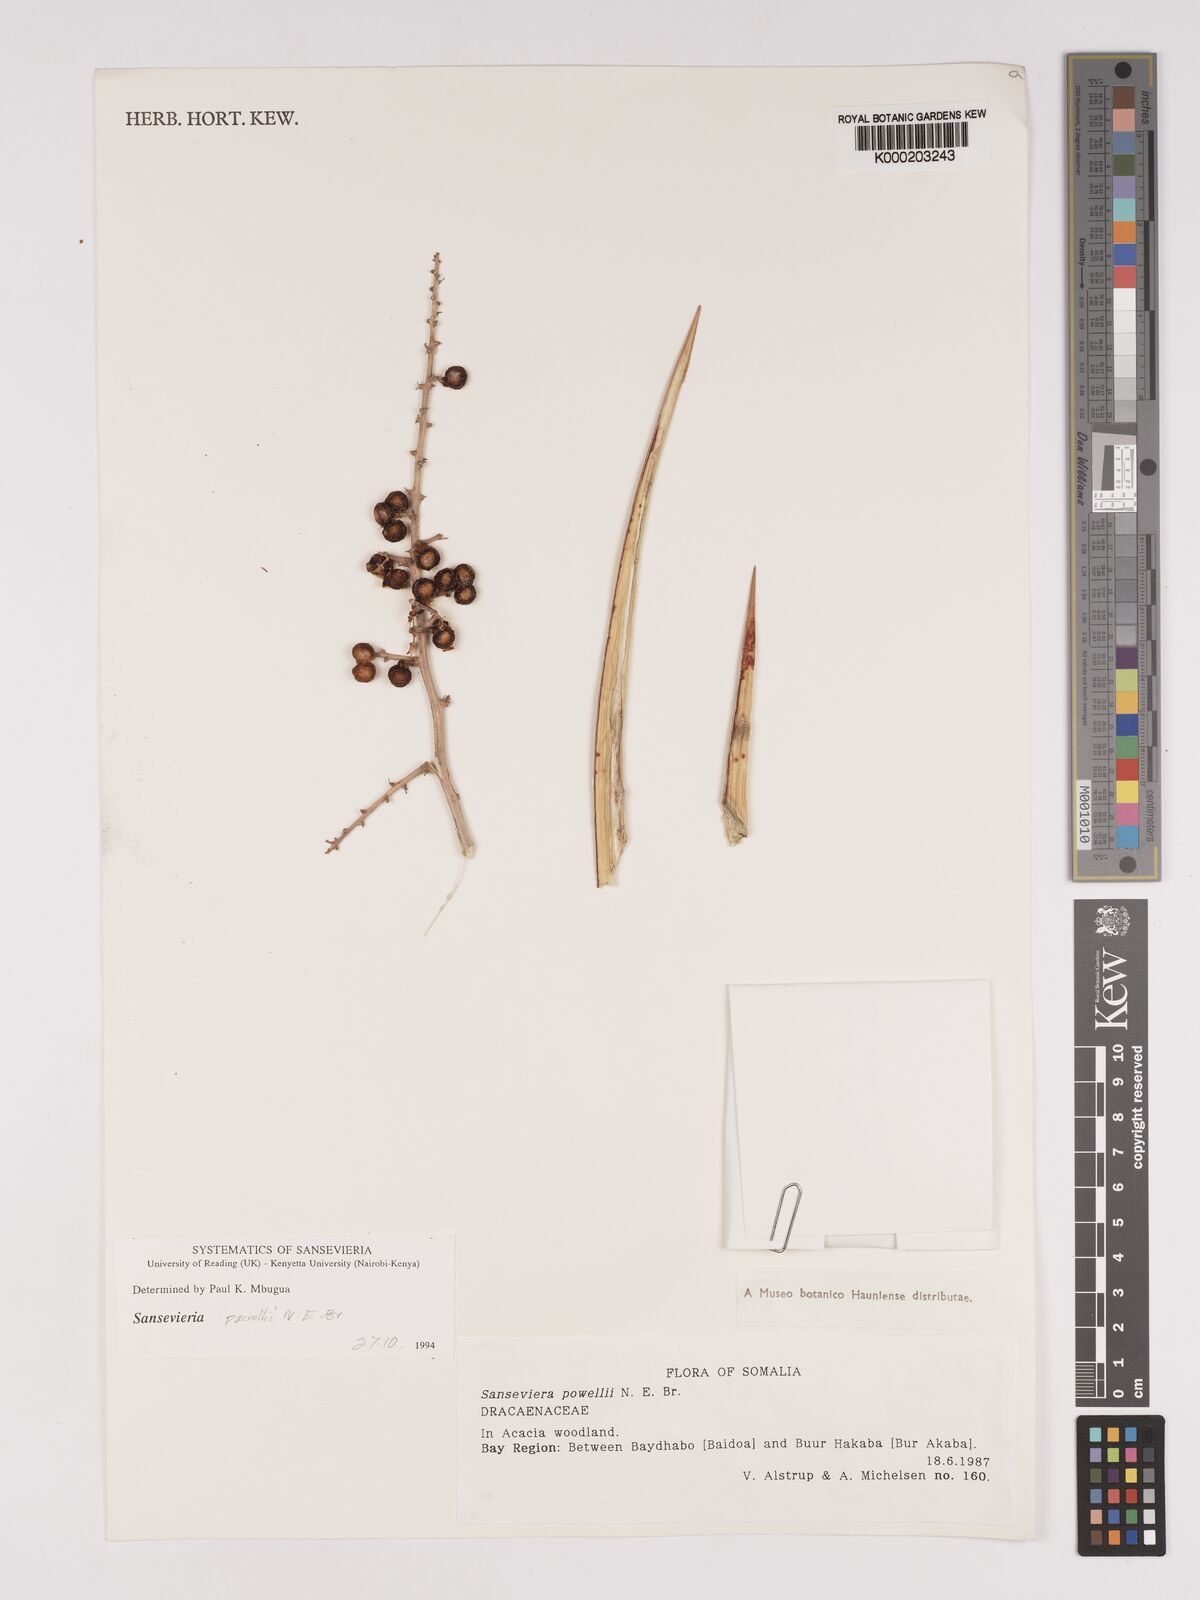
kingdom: Plantae
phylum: Tracheophyta
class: Liliopsida
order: Asparagales
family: Asparagaceae
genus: Dracaena
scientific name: Dracaena powellii
